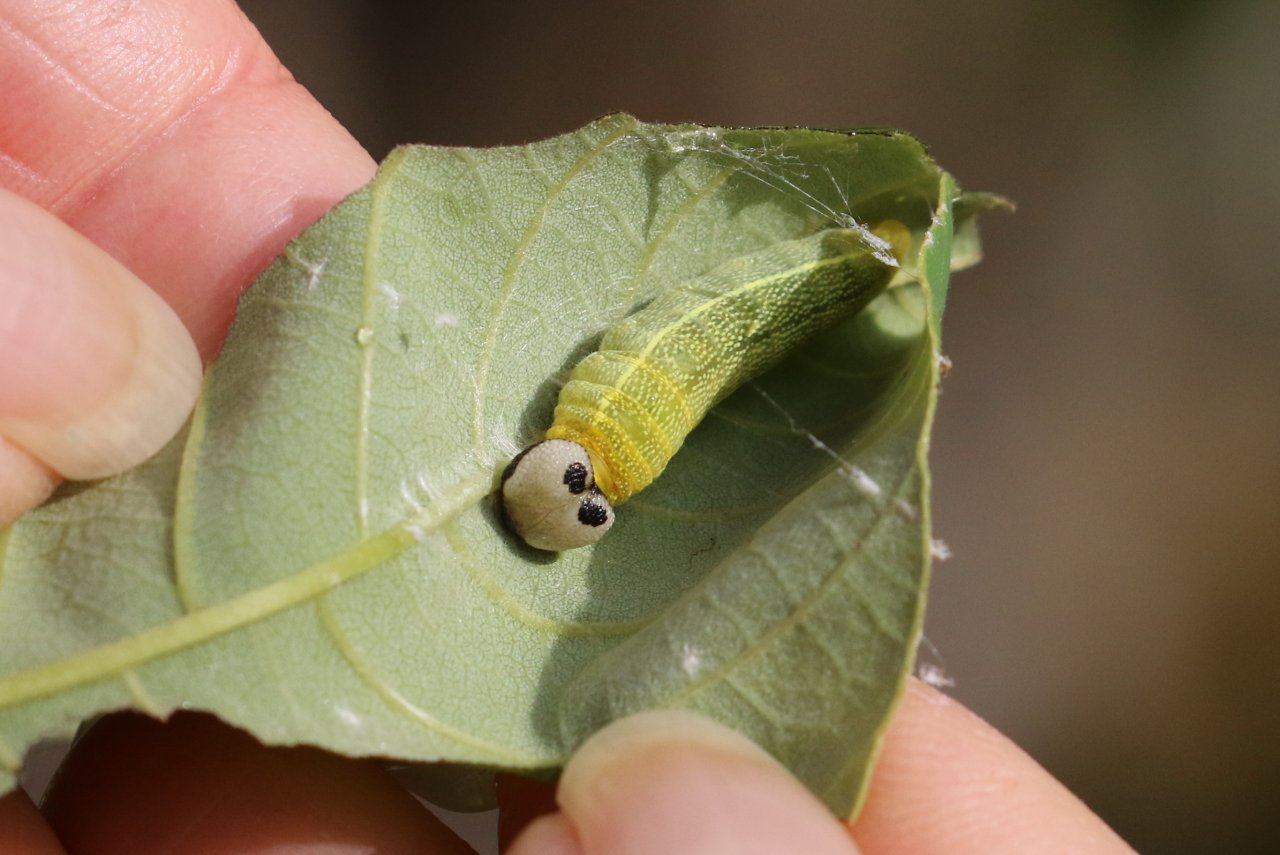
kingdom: Animalia
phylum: Arthropoda
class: Insecta
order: Lepidoptera
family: Hesperiidae
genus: Polygonus
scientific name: Polygonus leo
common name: Hammock Skipper
